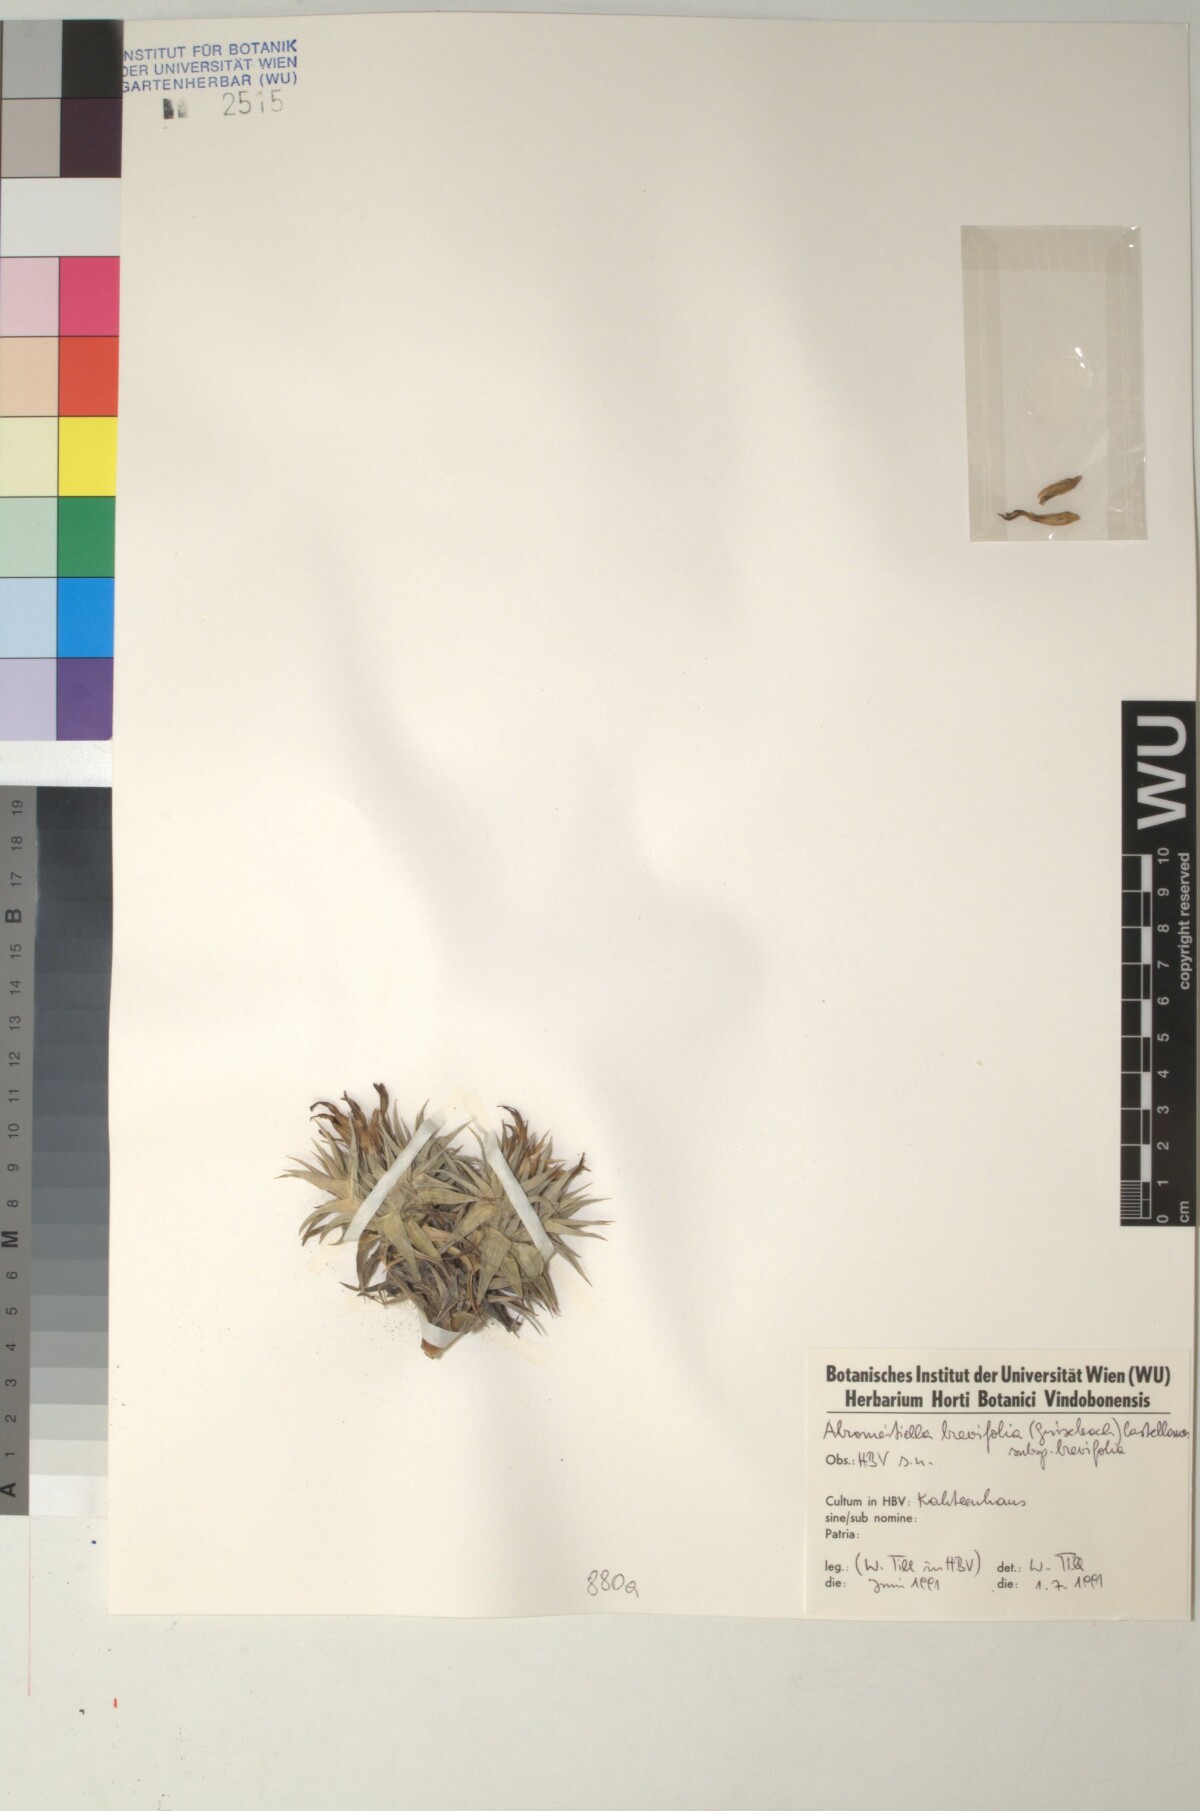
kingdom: Plantae
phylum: Tracheophyta
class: Liliopsida
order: Poales
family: Bromeliaceae
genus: Deuterocohnia
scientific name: Deuterocohnia brevifolia
